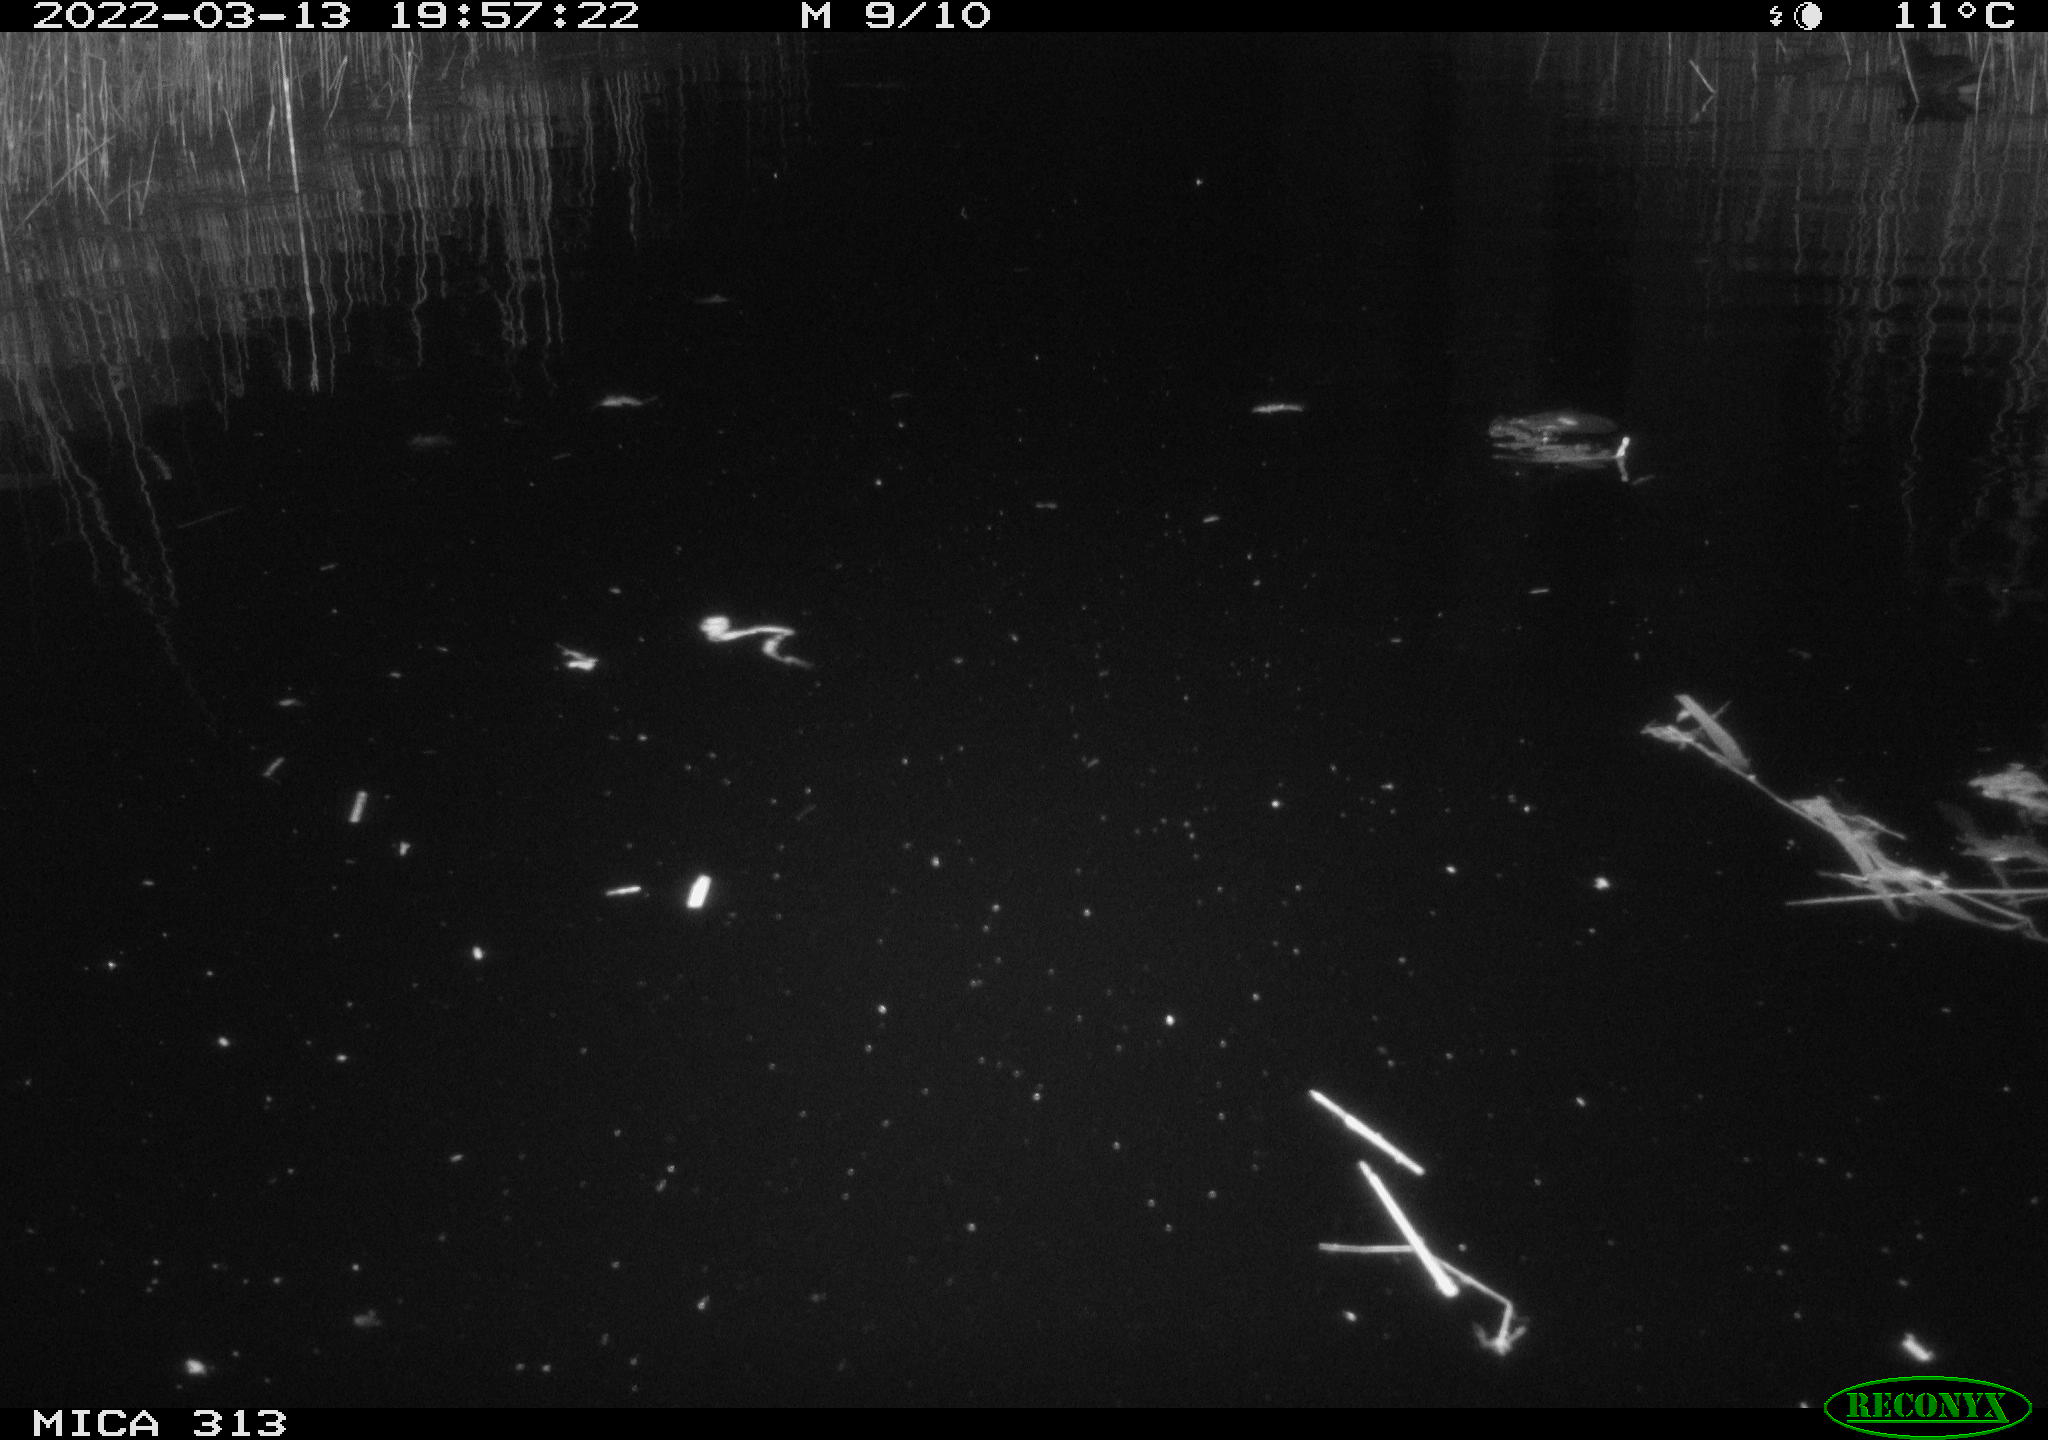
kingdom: Animalia
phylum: Chordata
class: Aves
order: Anseriformes
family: Anatidae
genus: Anas
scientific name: Anas platyrhynchos
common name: Mallard
